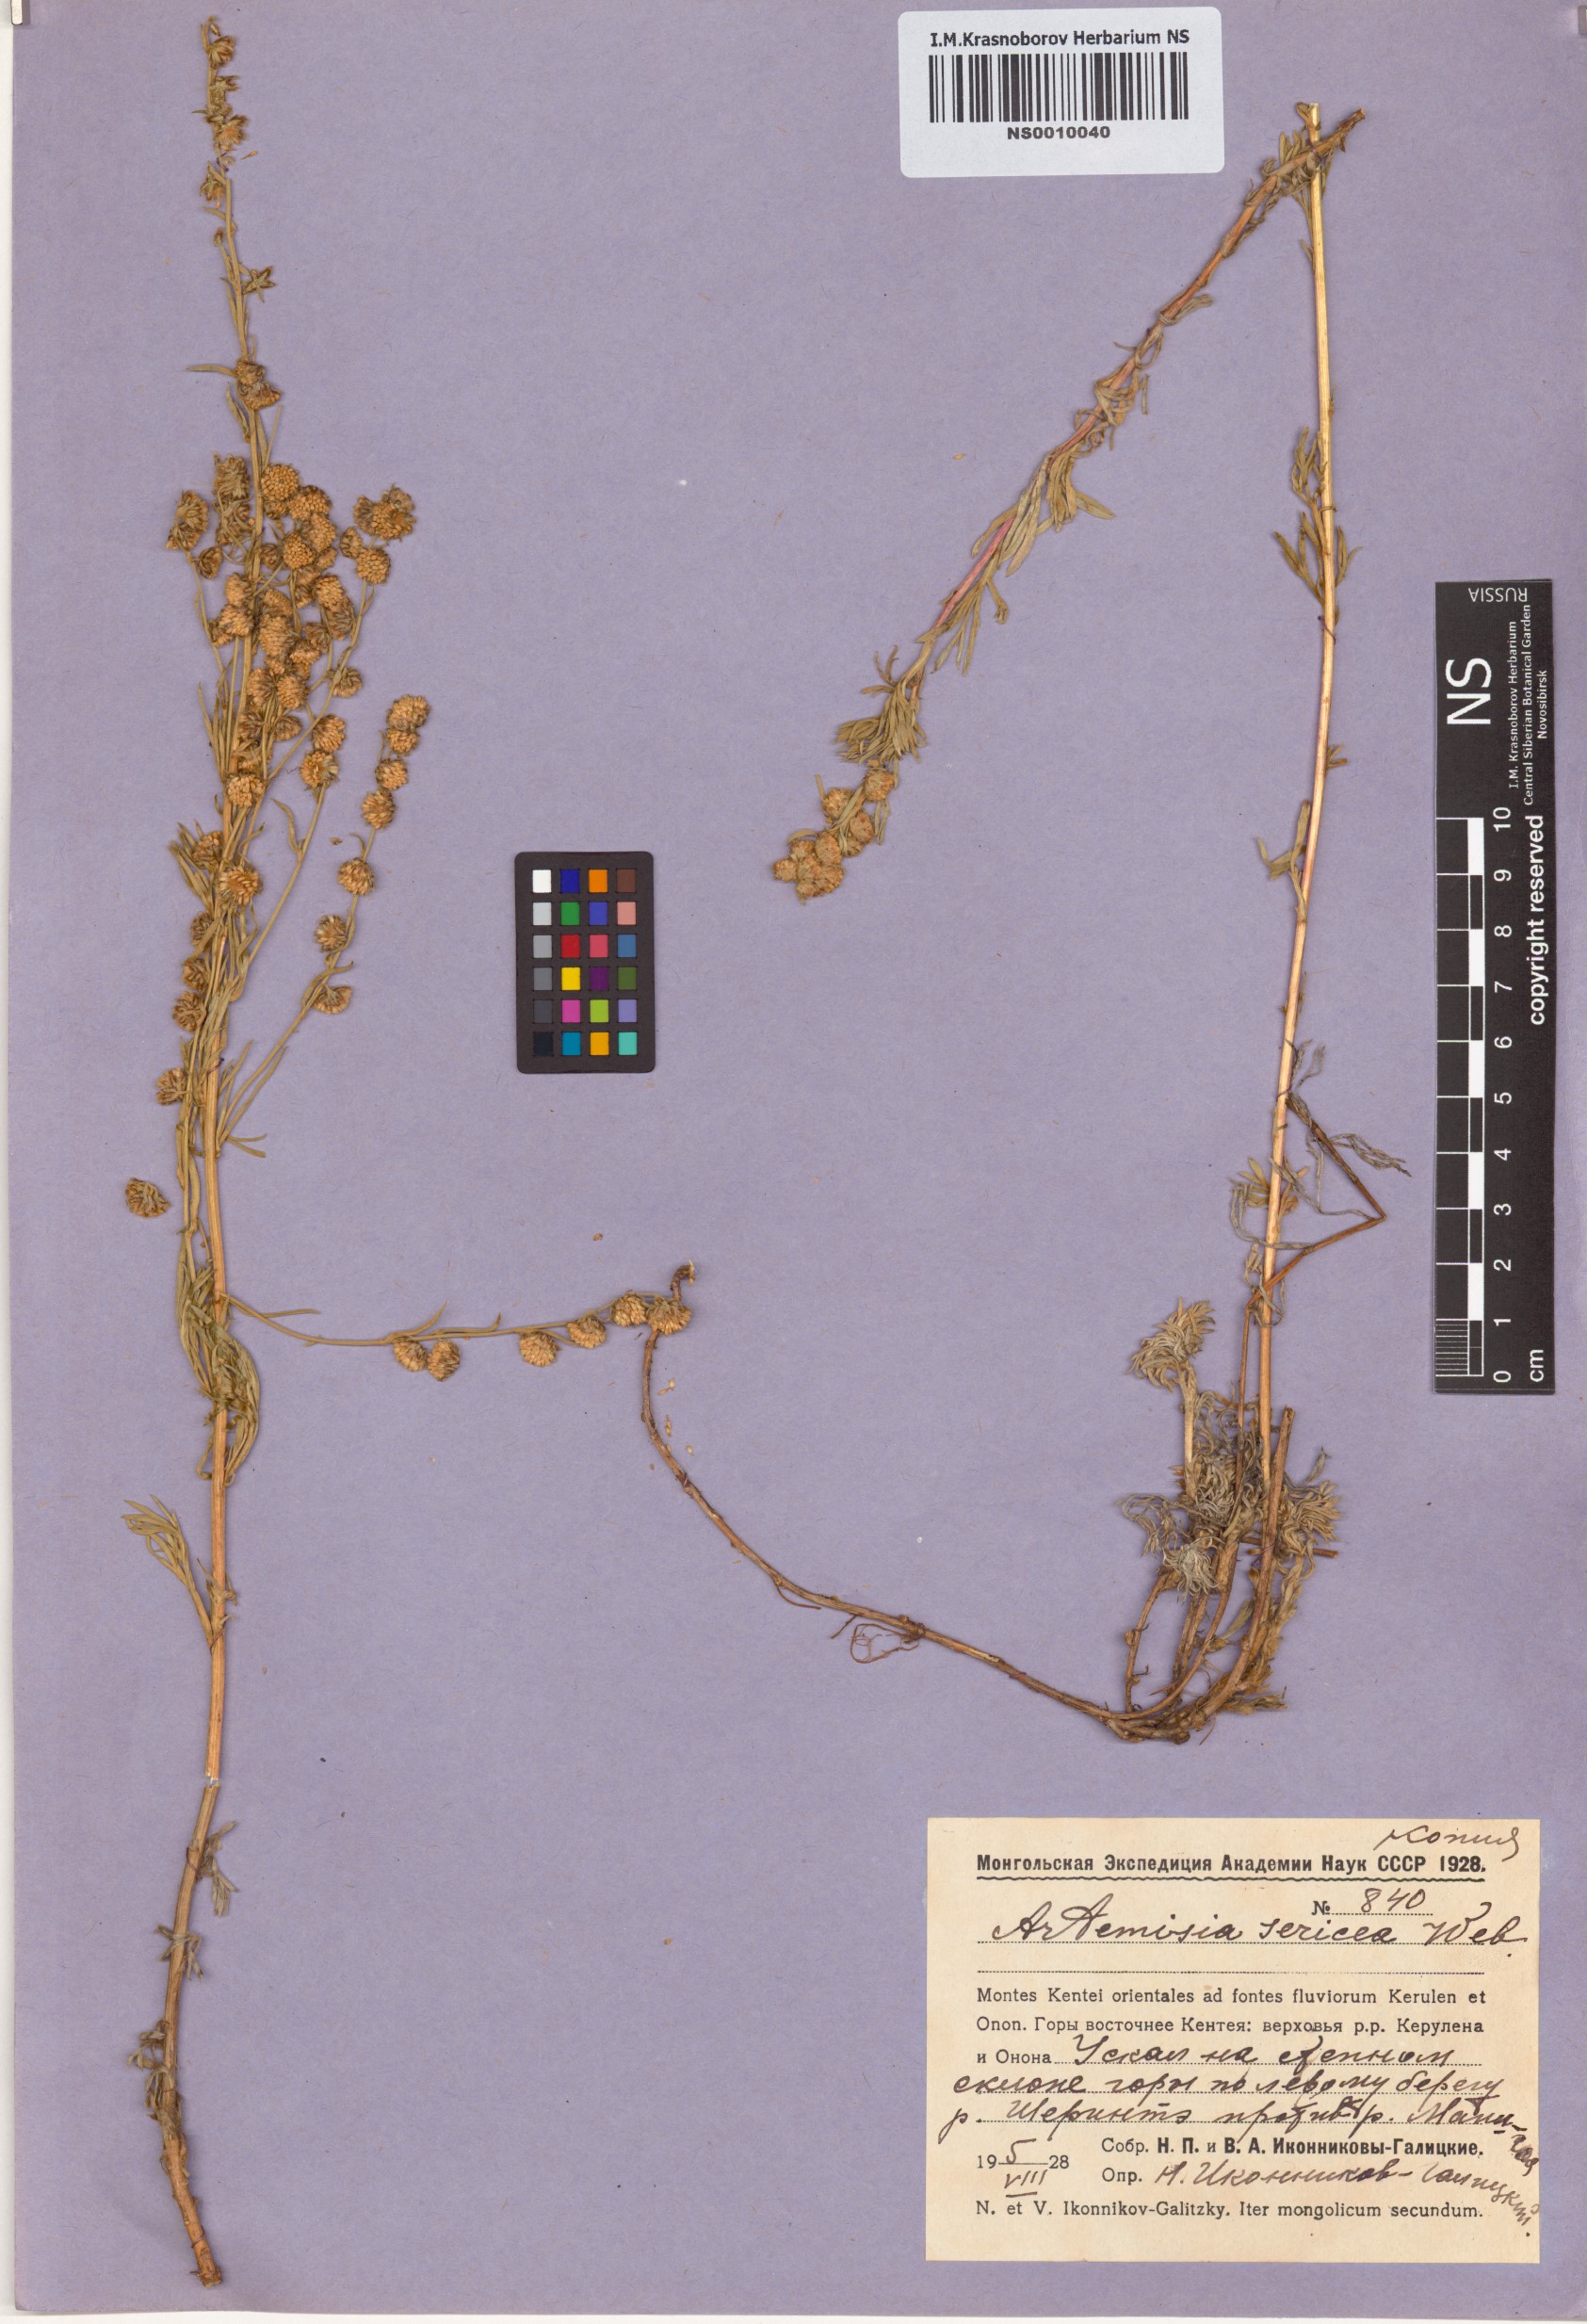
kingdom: Plantae
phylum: Tracheophyta
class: Magnoliopsida
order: Asterales
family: Asteraceae
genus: Artemisia
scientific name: Artemisia sericea
